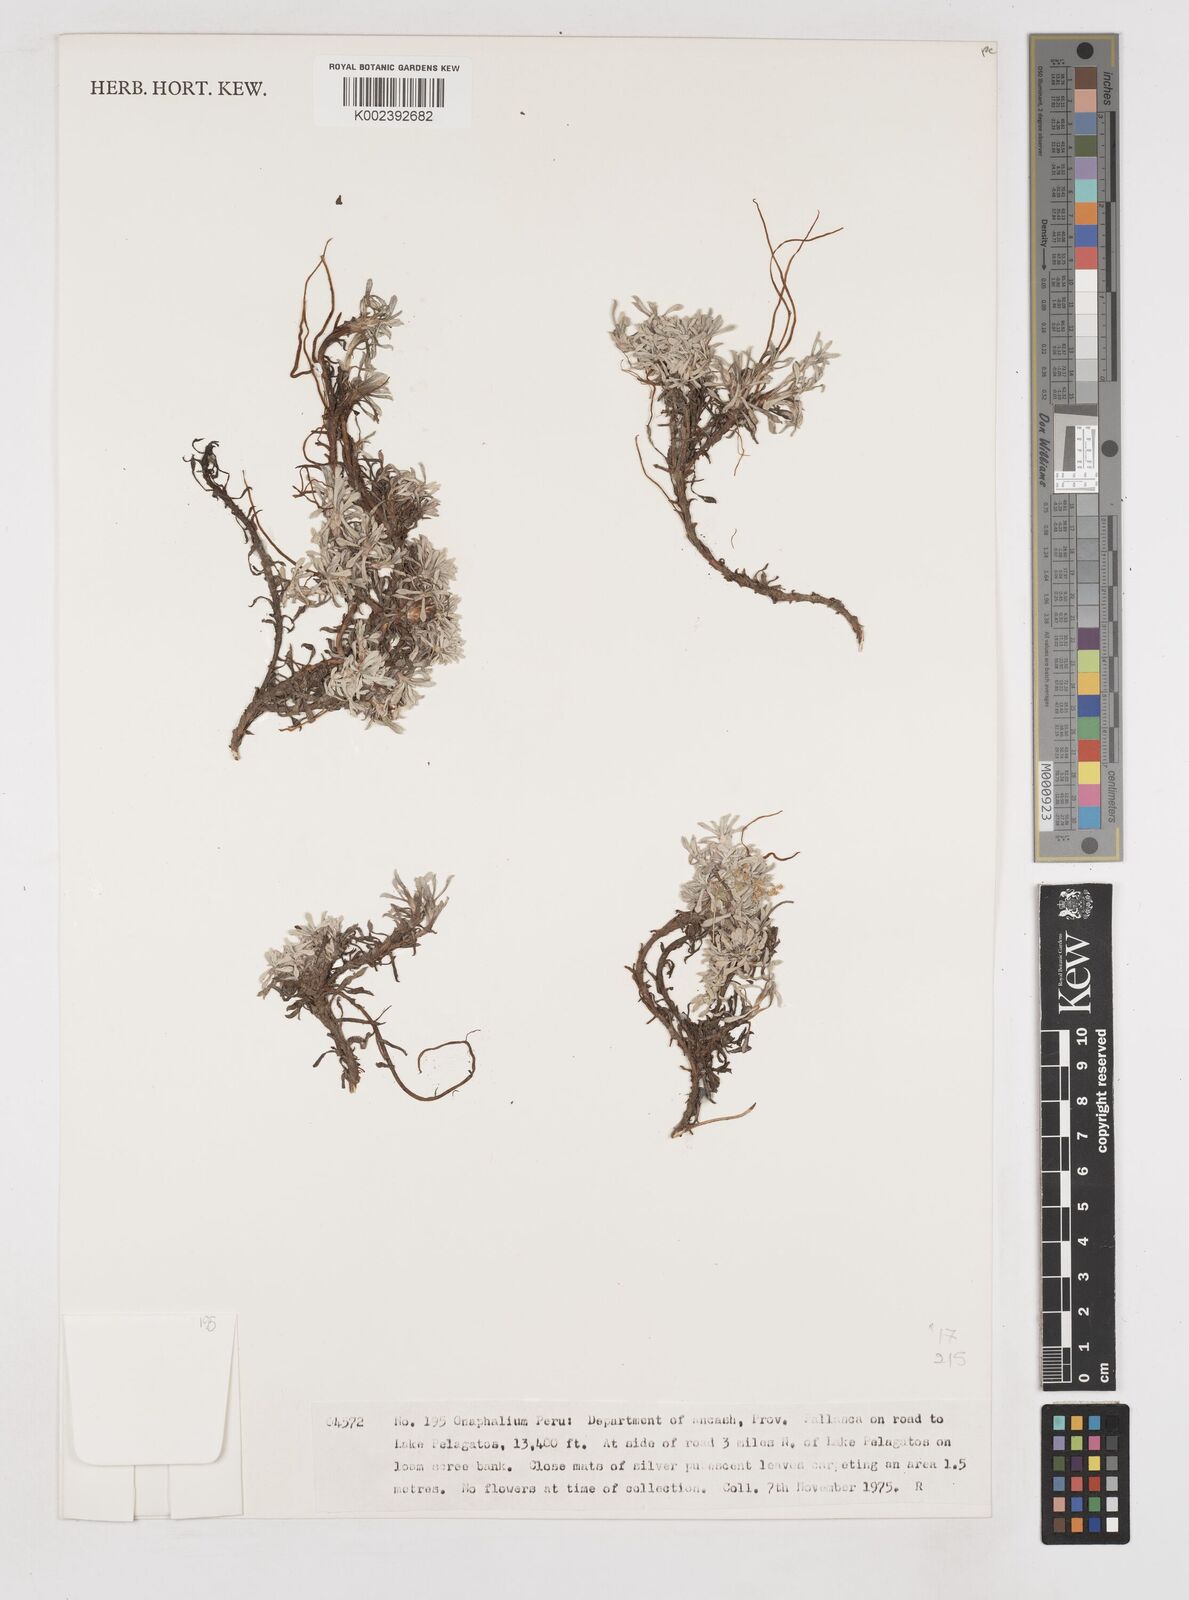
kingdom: Plantae
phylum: Tracheophyta
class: Magnoliopsida
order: Asterales
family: Asteraceae
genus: Gnaphalium
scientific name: Gnaphalium
